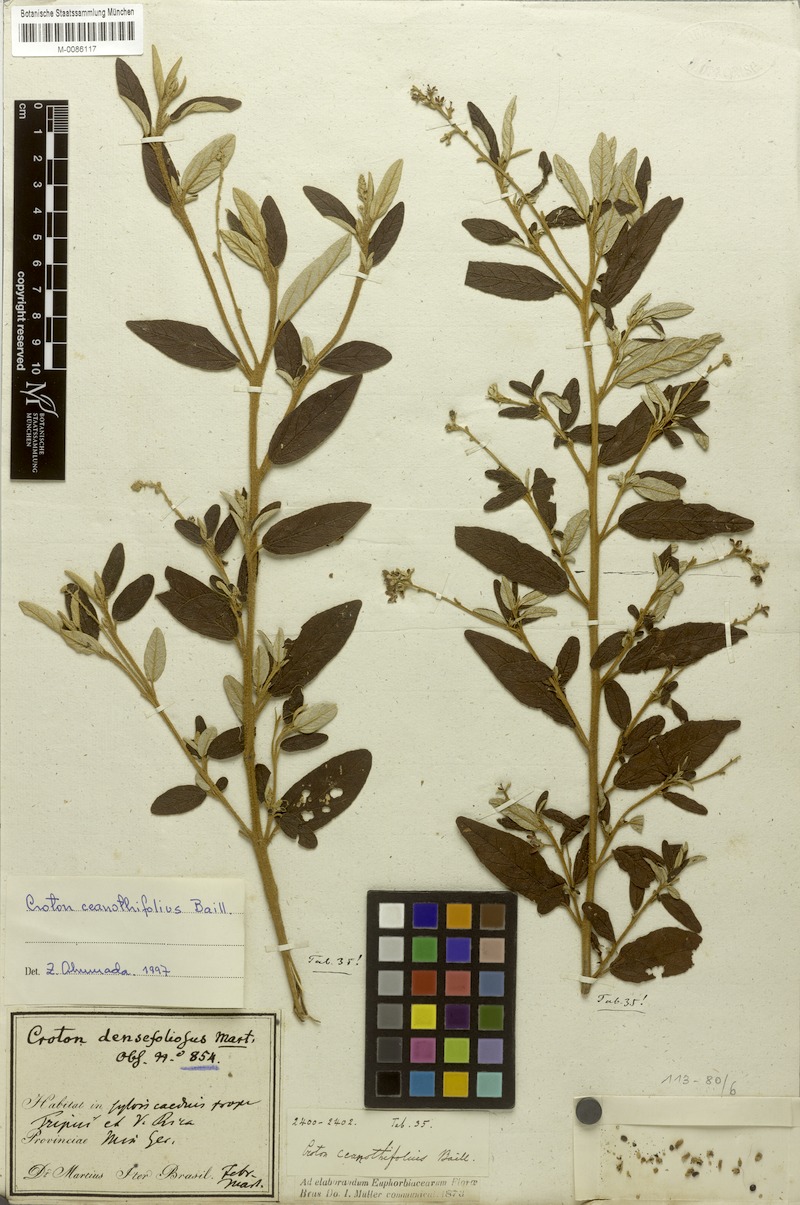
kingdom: Plantae
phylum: Tracheophyta
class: Magnoliopsida
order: Malpighiales
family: Euphorbiaceae
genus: Croton
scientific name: Croton ceanothifolius
